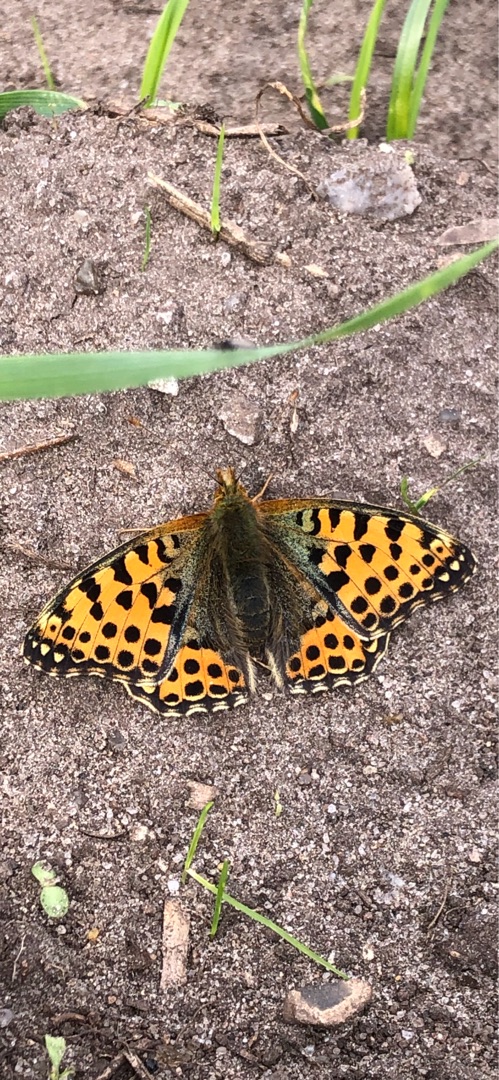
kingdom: Animalia
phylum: Arthropoda
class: Insecta
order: Lepidoptera
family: Nymphalidae
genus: Issoria
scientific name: Issoria lathonia
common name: Storplettet perlemorsommerfugl
